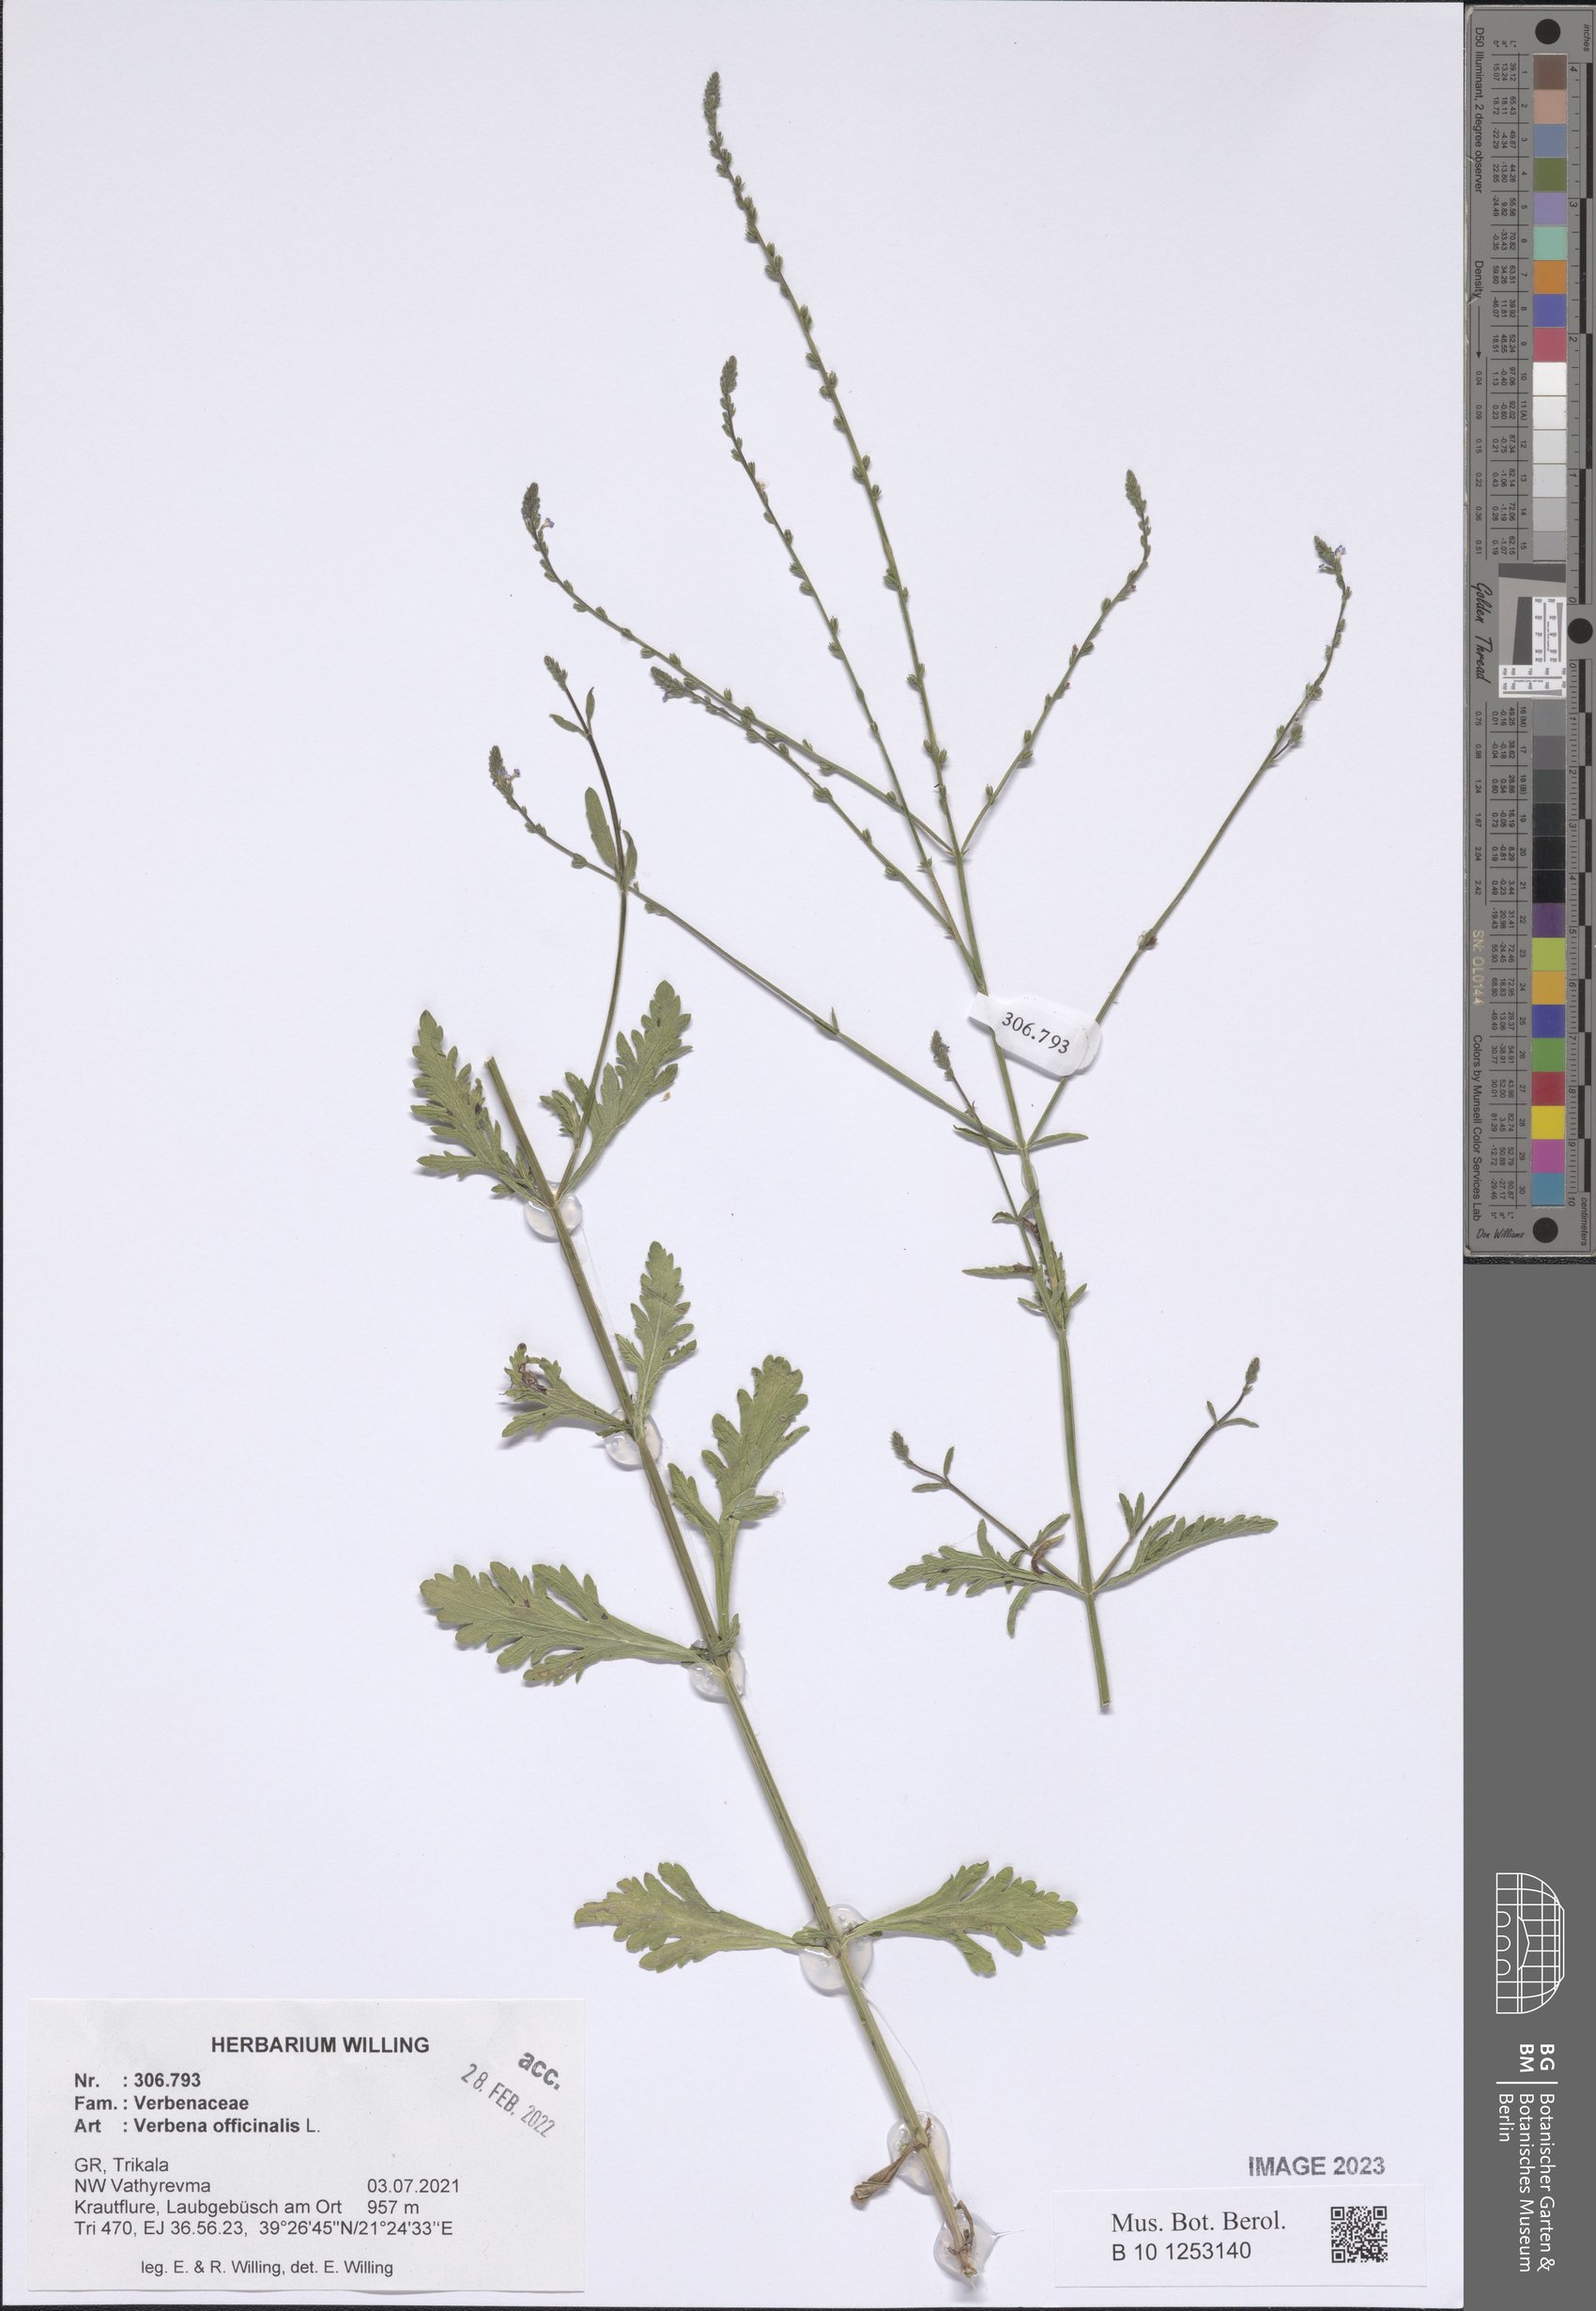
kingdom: Plantae
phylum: Tracheophyta
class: Magnoliopsida
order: Lamiales
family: Verbenaceae
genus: Verbena
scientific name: Verbena officinalis
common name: Vervain
